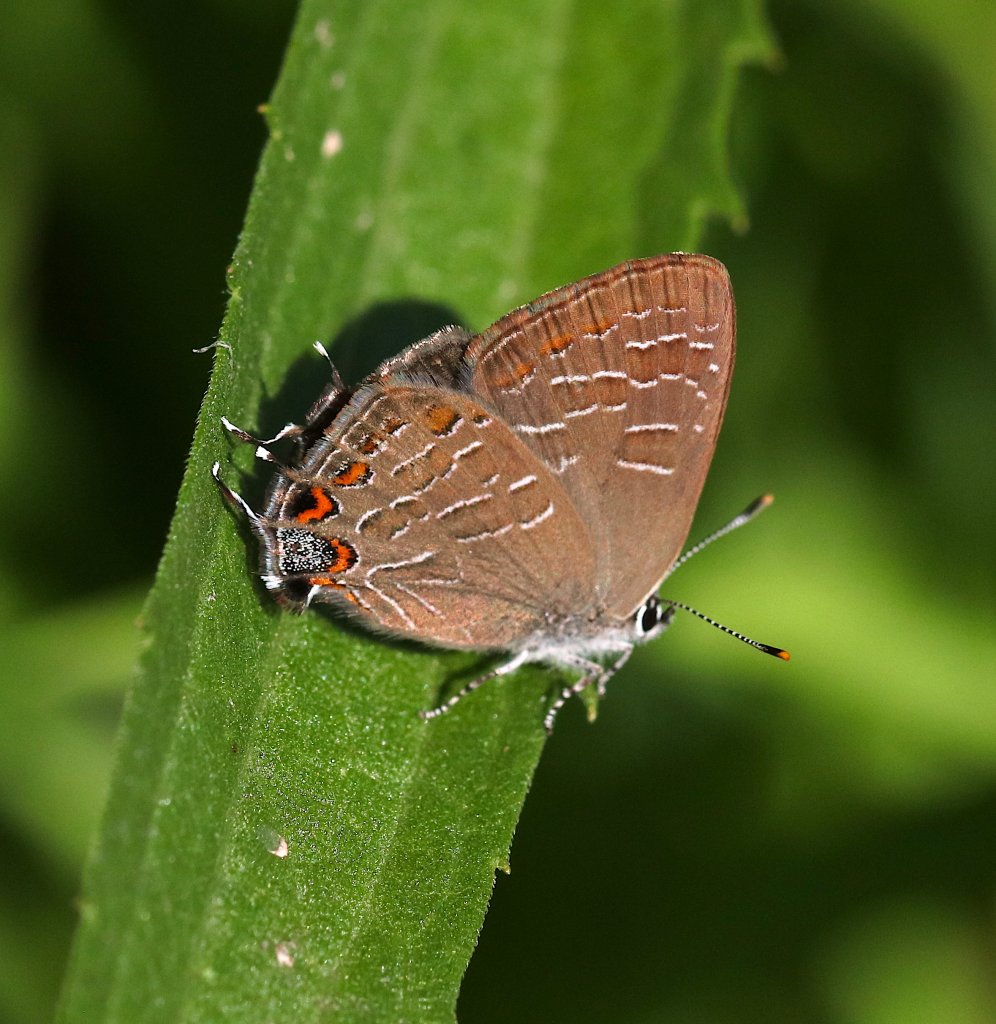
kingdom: Animalia
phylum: Arthropoda
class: Insecta
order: Lepidoptera
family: Lycaenidae
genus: Satyrium
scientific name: Satyrium liparops
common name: Striped Hairstreak
